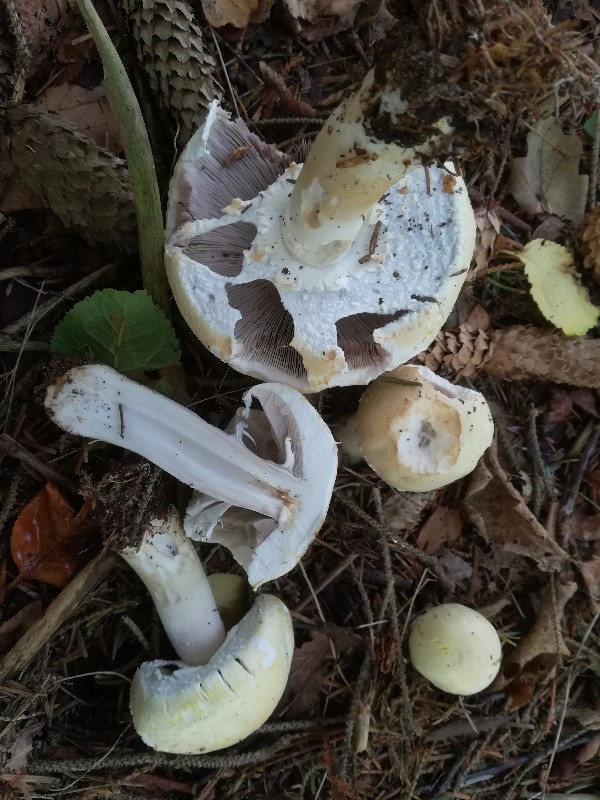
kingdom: Fungi
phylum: Basidiomycota
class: Agaricomycetes
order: Agaricales
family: Agaricaceae
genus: Agaricus
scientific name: Agaricus sylvicola
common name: gulhvid champignon
